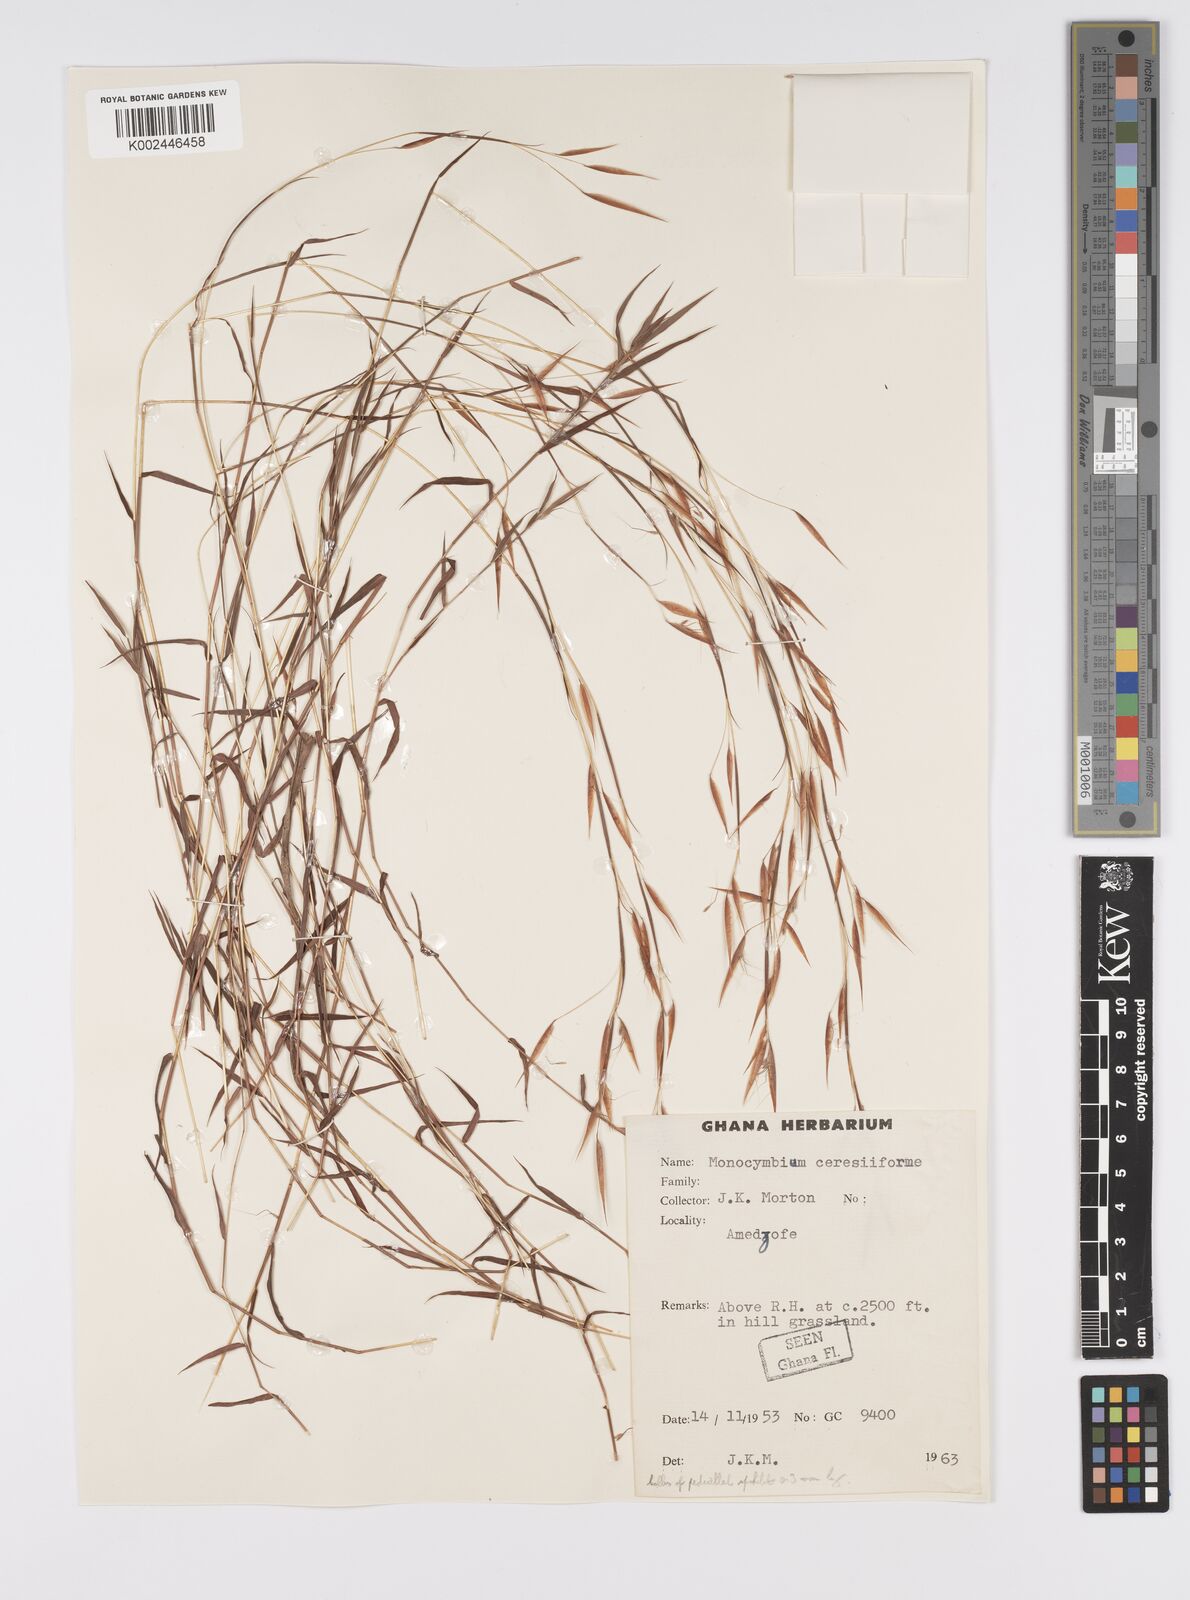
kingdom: Plantae
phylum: Tracheophyta
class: Liliopsida
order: Poales
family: Poaceae
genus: Monocymbium
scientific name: Monocymbium ceresiiforme
